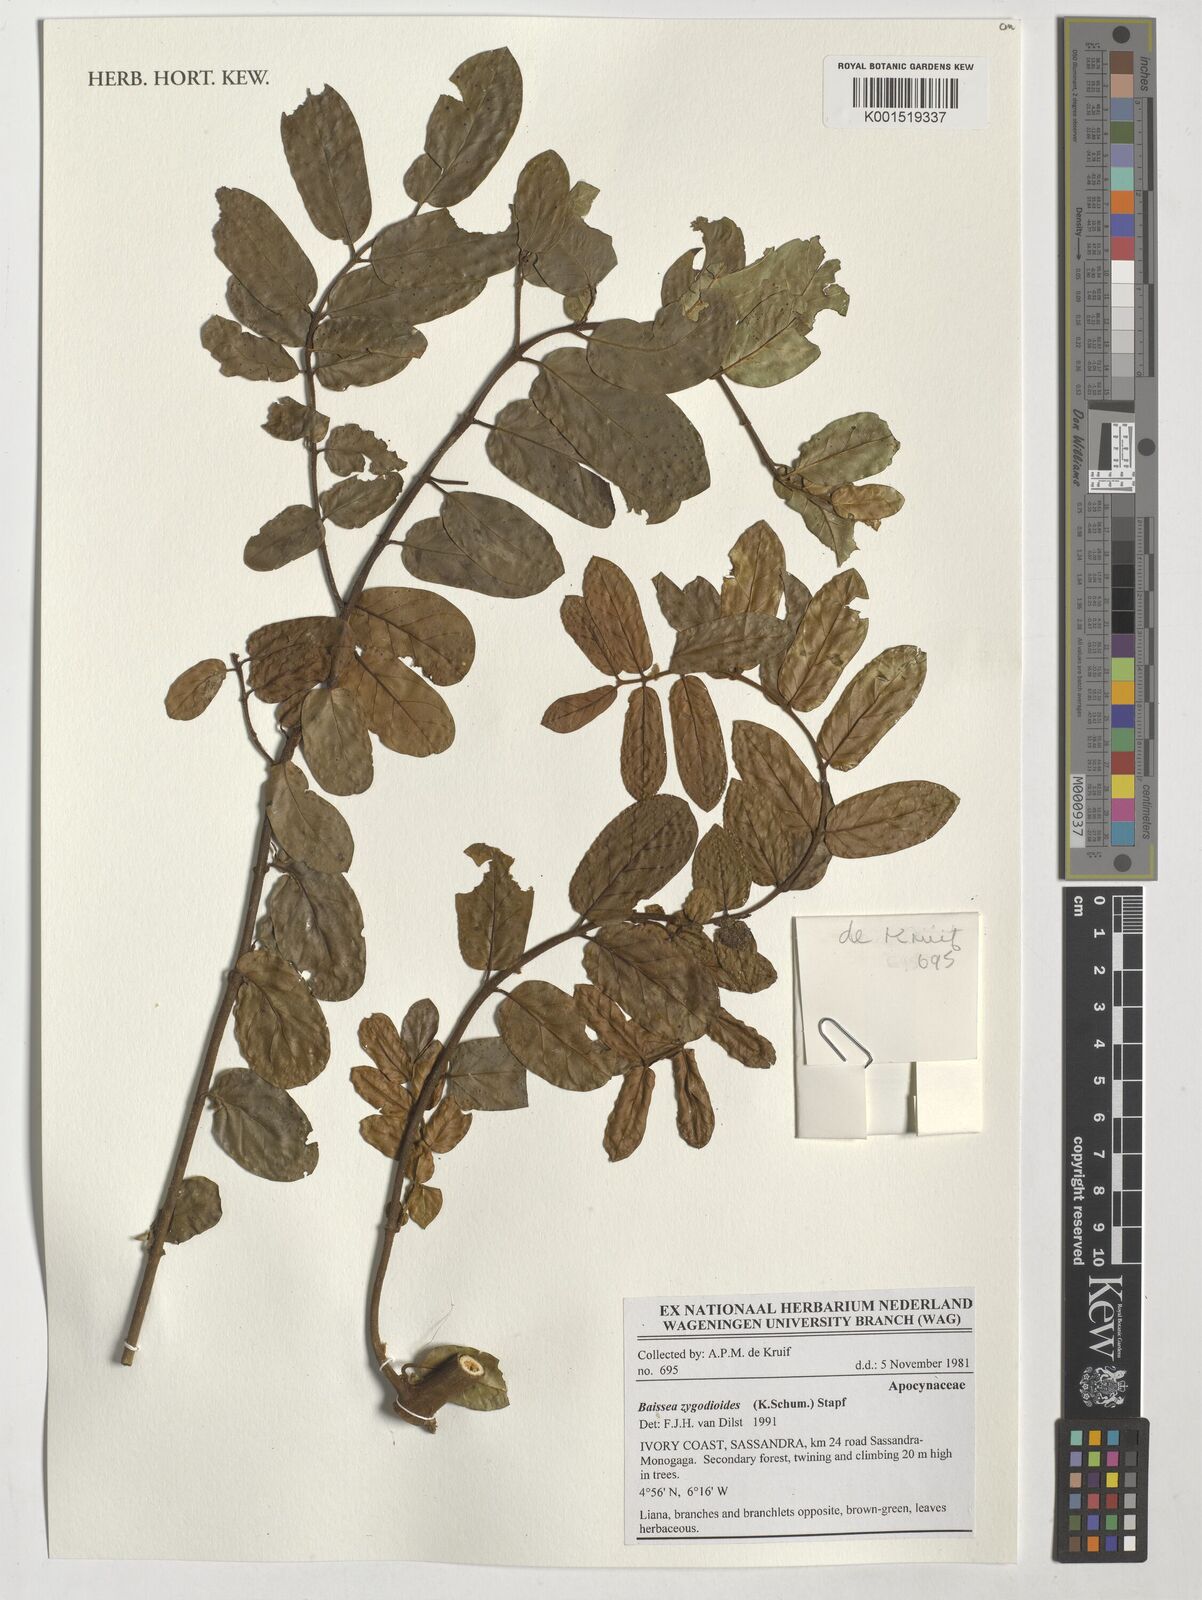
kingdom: Plantae
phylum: Tracheophyta
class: Magnoliopsida
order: Gentianales
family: Apocynaceae
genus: Baissea
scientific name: Baissea zygodioides
